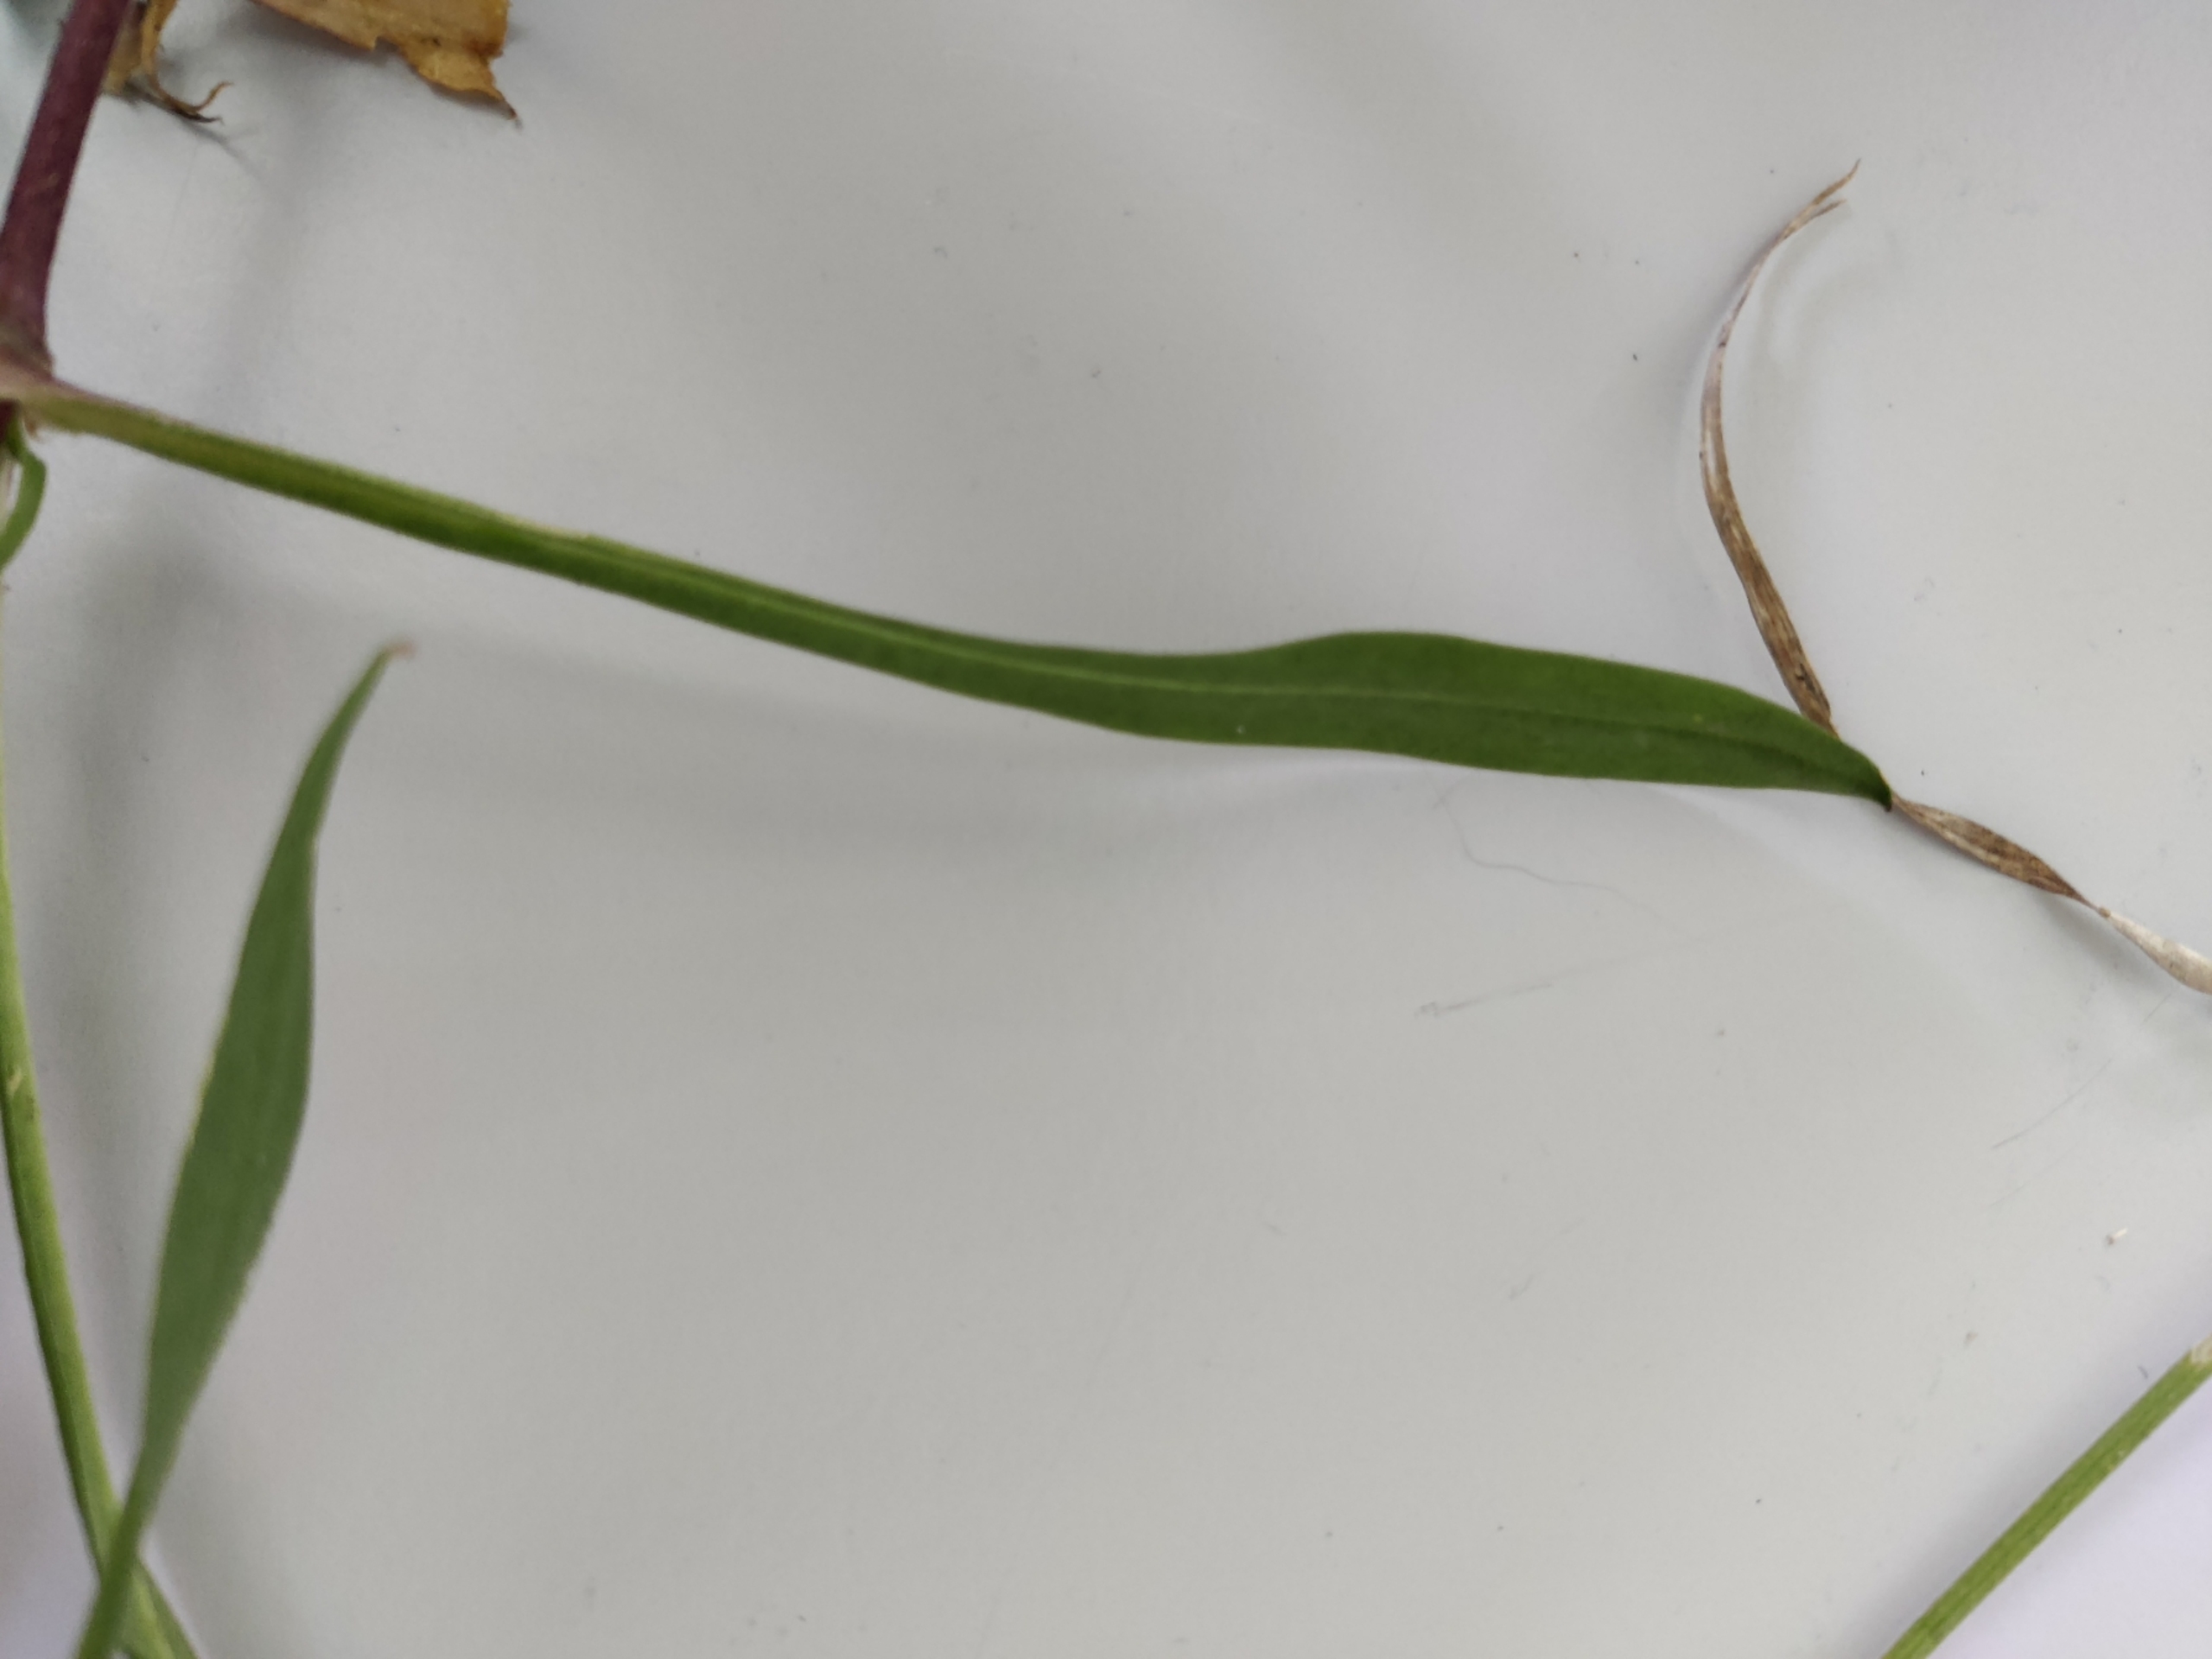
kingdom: Plantae
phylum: Tracheophyta
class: Magnoliopsida
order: Caryophyllales
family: Caryophyllaceae
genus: Silene
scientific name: Silene flos-cuculi
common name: Trævlekrone
